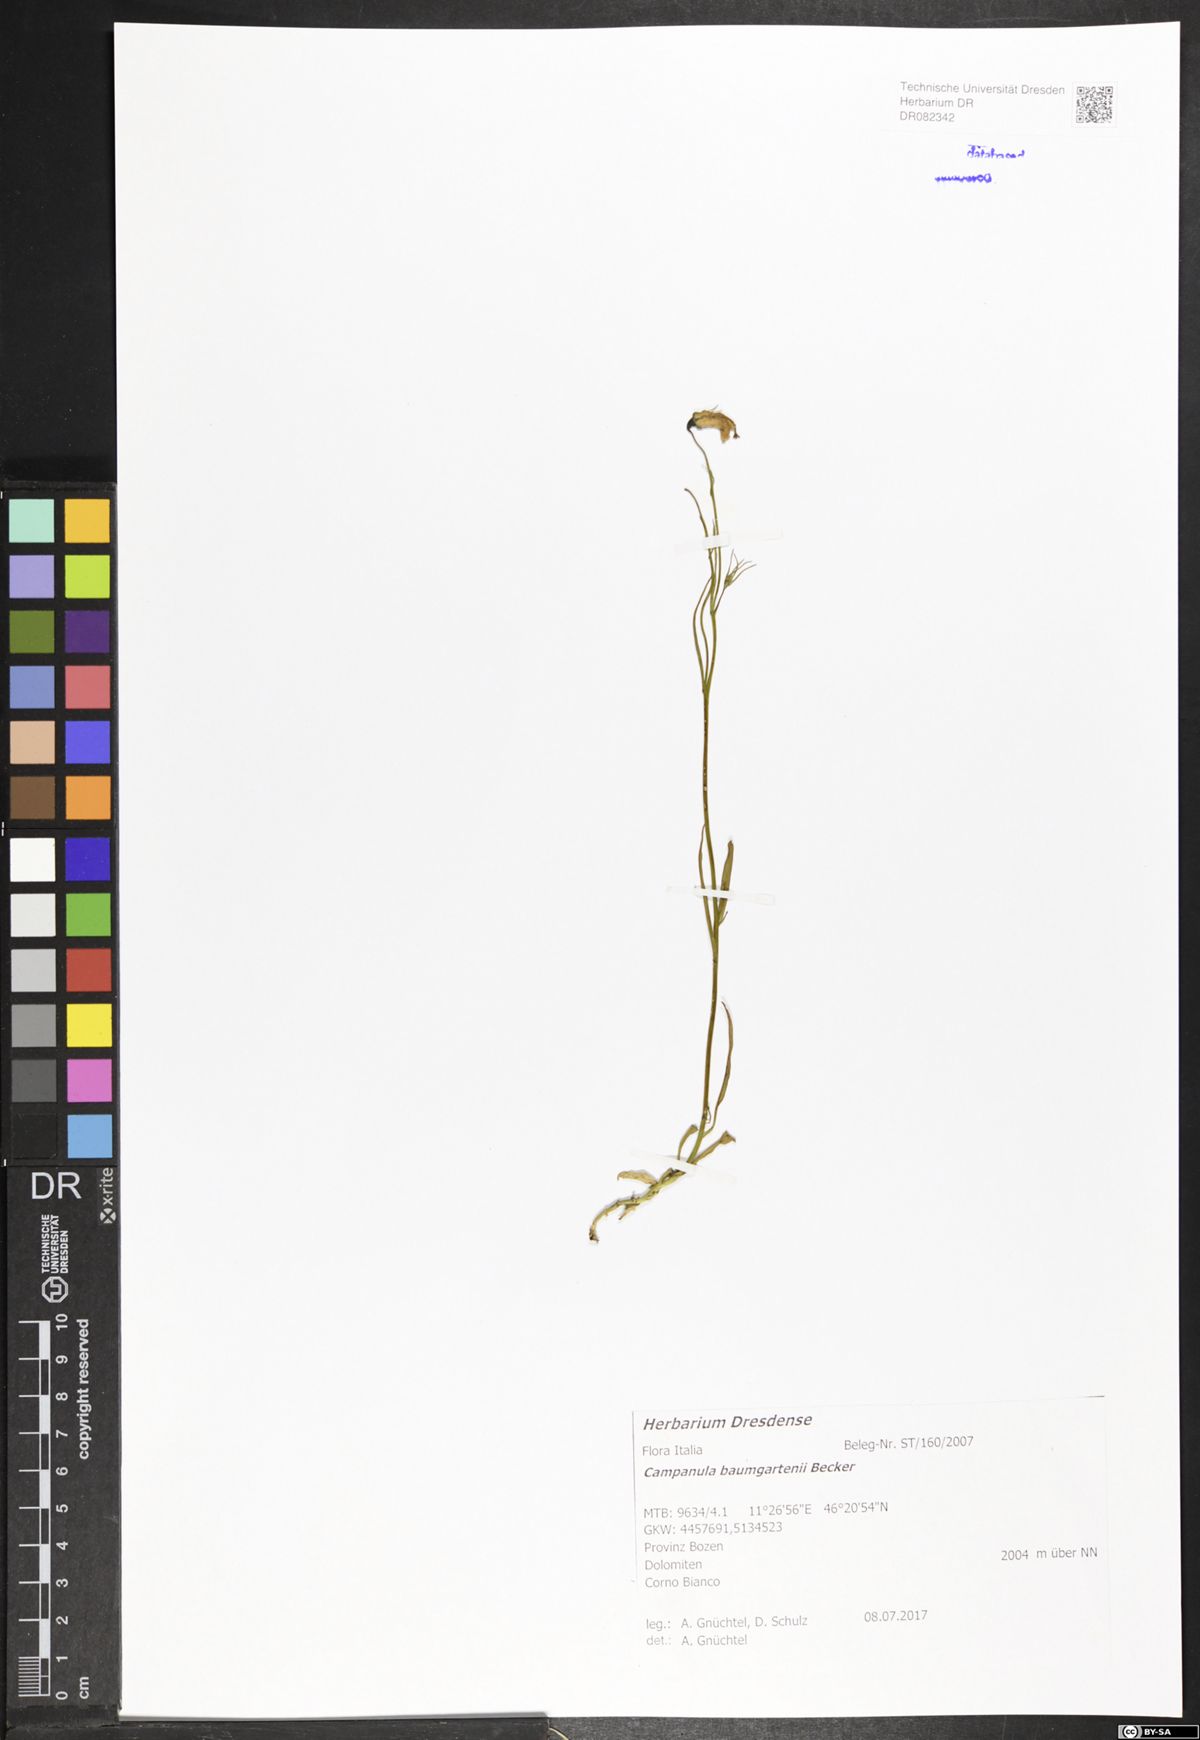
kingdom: Plantae
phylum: Tracheophyta
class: Magnoliopsida
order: Asterales
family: Campanulaceae
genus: Campanula
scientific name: Campanula baumgartenii
